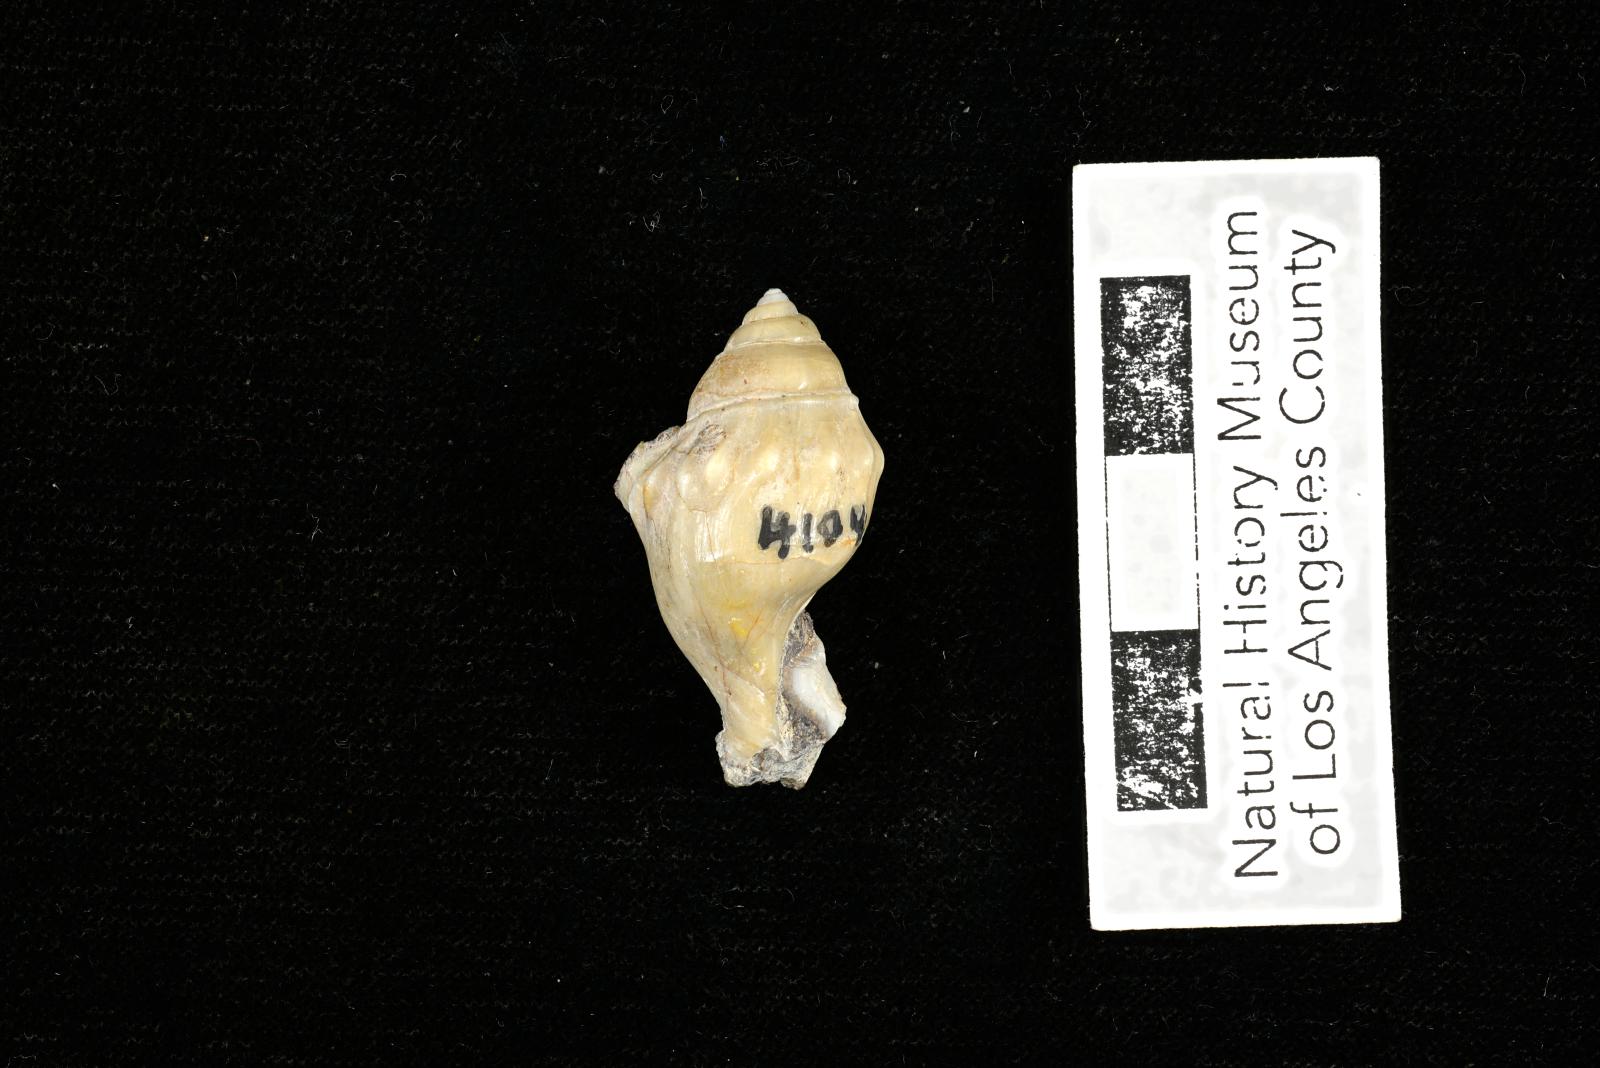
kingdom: Animalia
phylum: Mollusca
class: Gastropoda
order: Littorinimorpha
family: Aporrhaidae
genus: Pyktes
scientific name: Pyktes aspris
